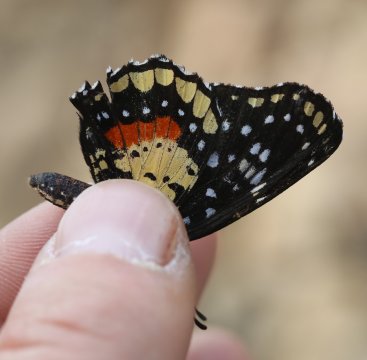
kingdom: Animalia
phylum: Arthropoda
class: Insecta
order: Lepidoptera
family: Nymphalidae
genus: Chlosyne
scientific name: Chlosyne janais
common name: Crimson Patch
